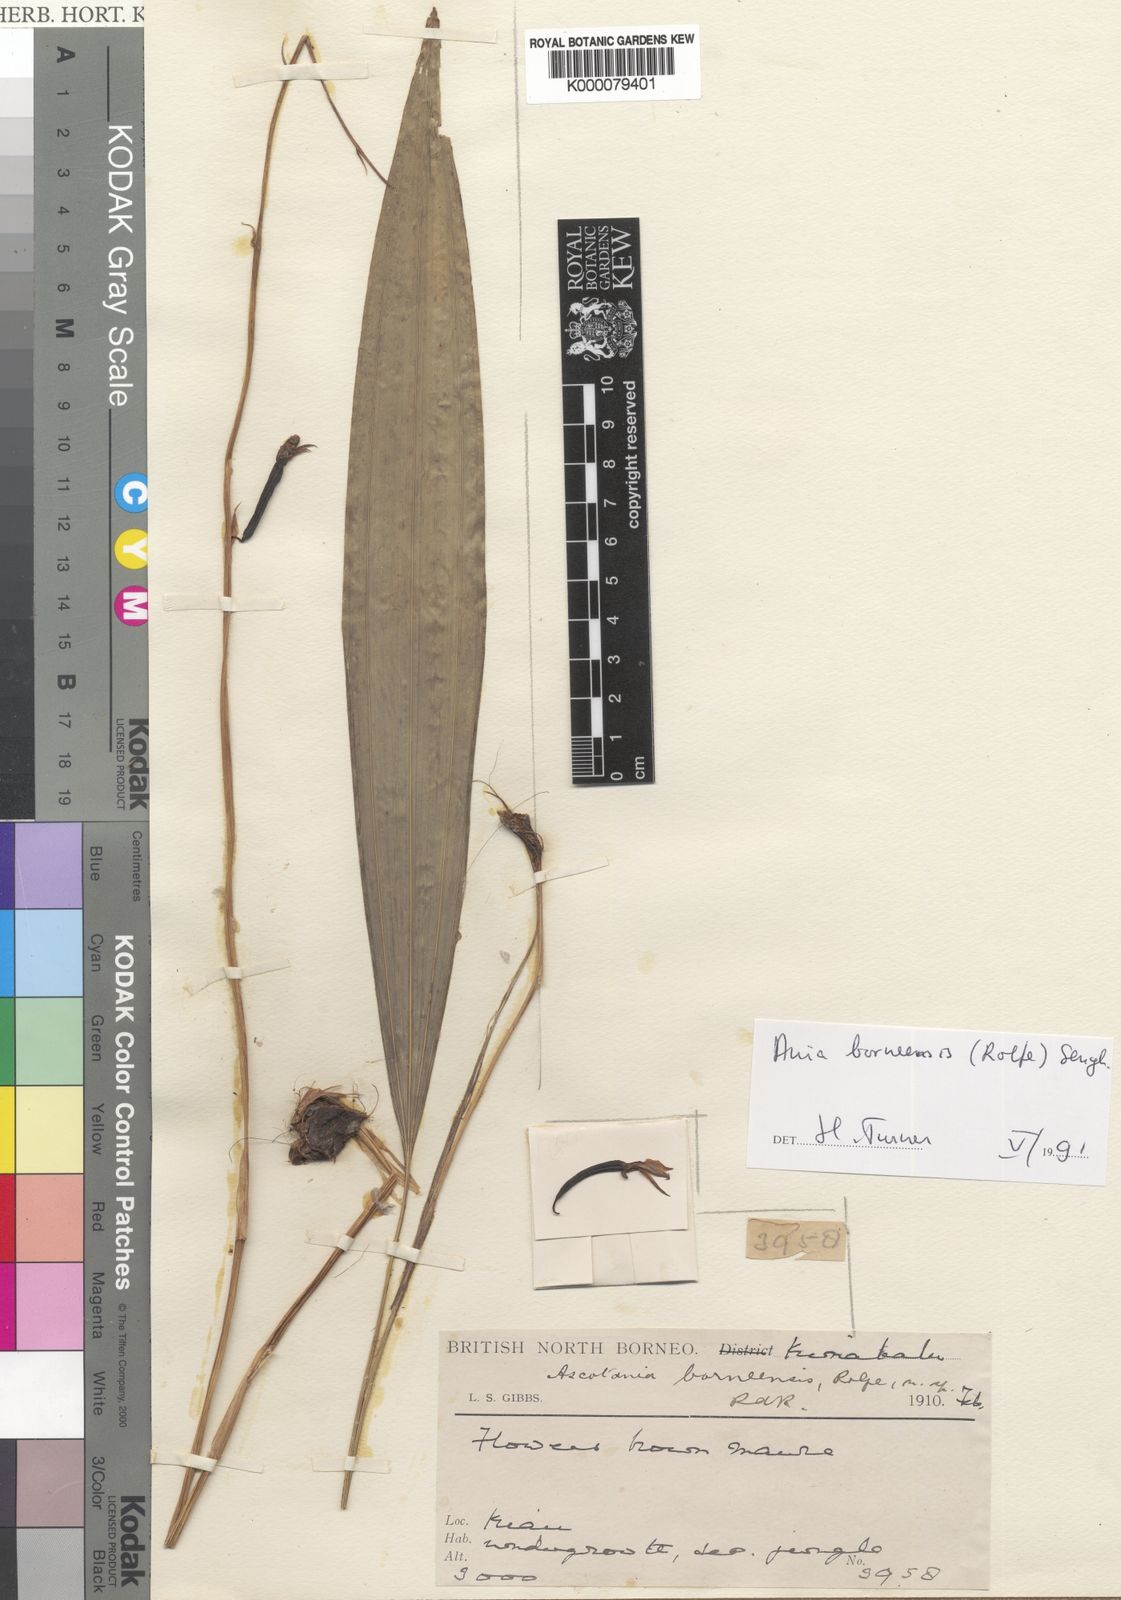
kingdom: Plantae
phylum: Tracheophyta
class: Liliopsida
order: Asparagales
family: Orchidaceae
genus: Ania
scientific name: Ania penangiana
